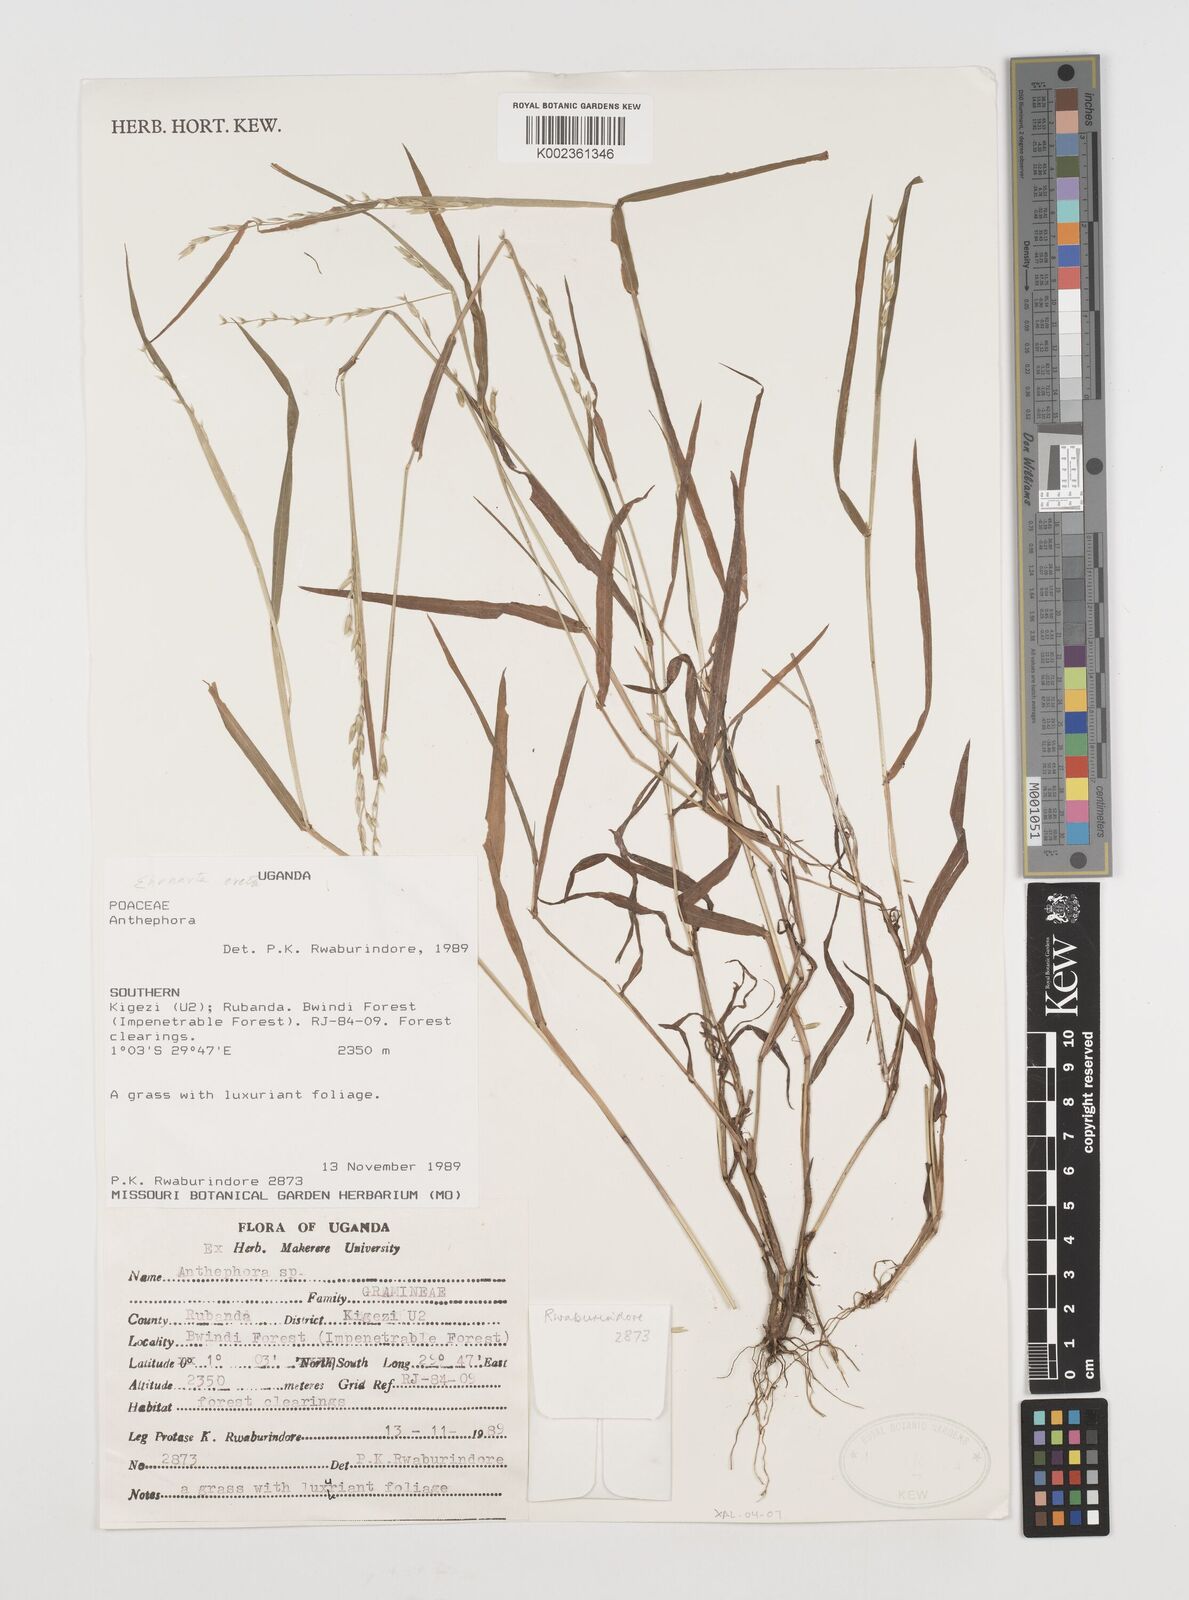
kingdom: Plantae
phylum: Tracheophyta
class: Liliopsida
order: Poales
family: Poaceae
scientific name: Poaceae
